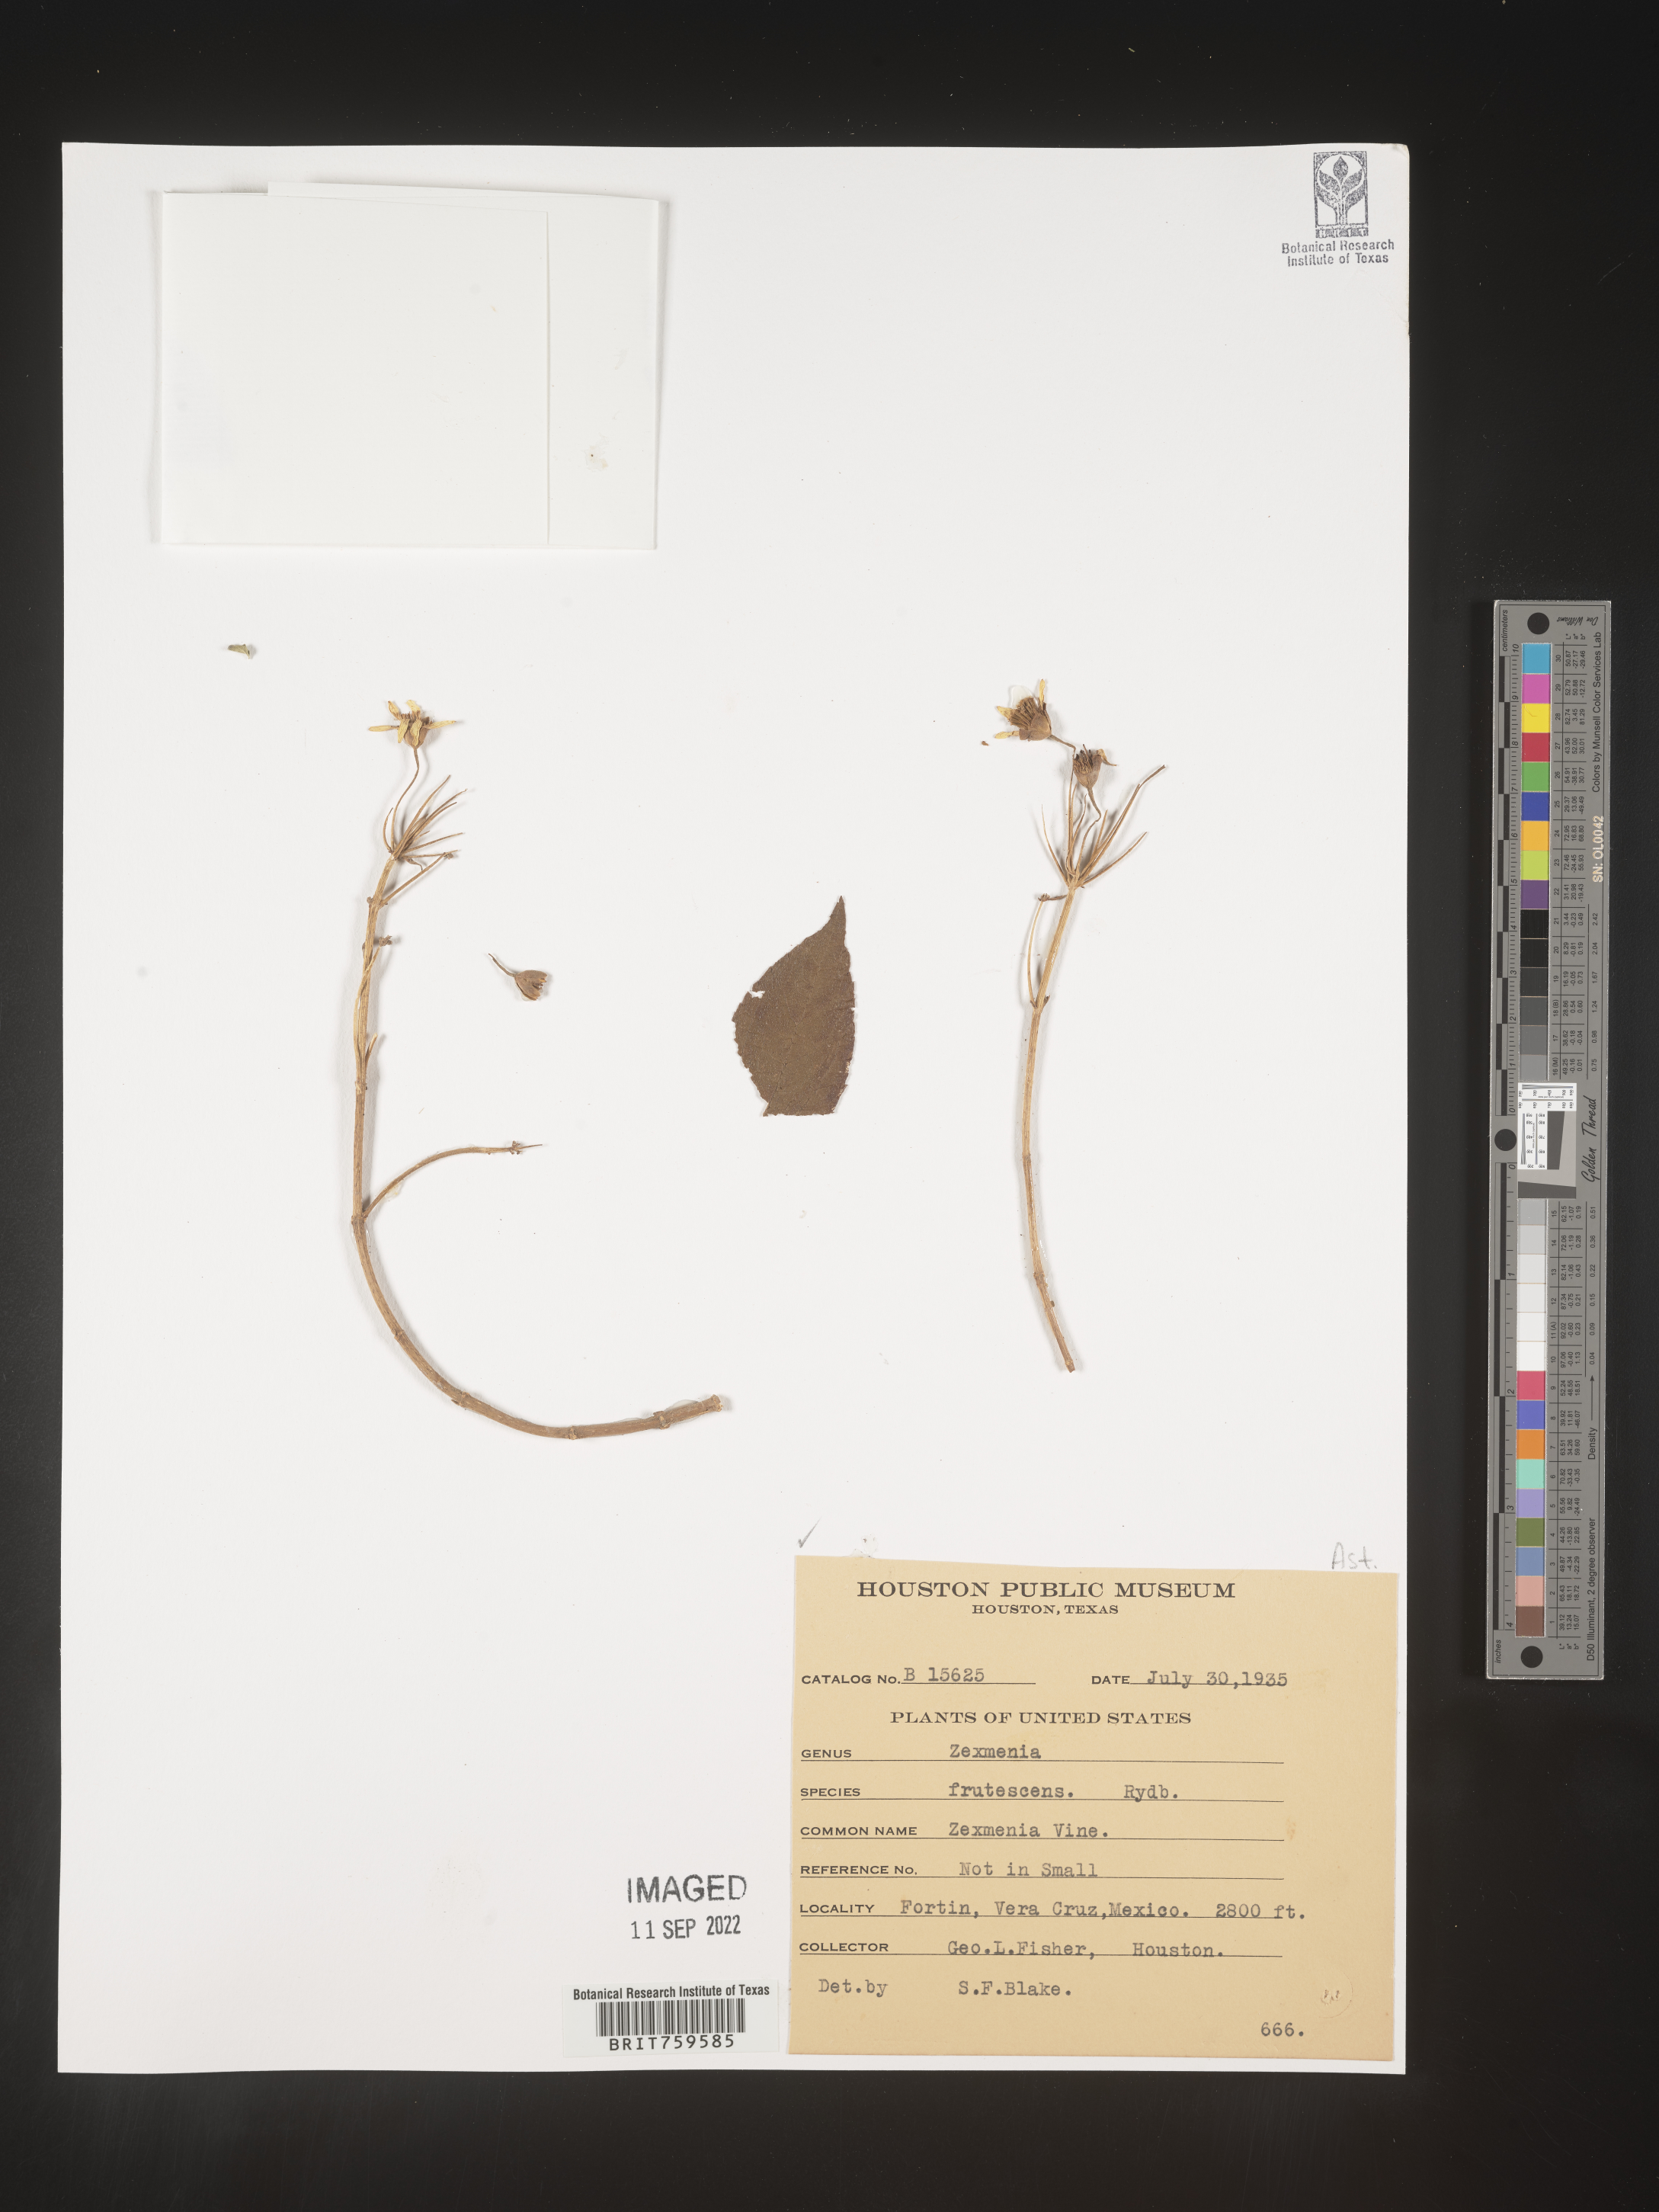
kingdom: Plantae
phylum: Tracheophyta
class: Magnoliopsida
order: Asterales
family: Asteraceae
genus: Zexmenia
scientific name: Zexmenia
